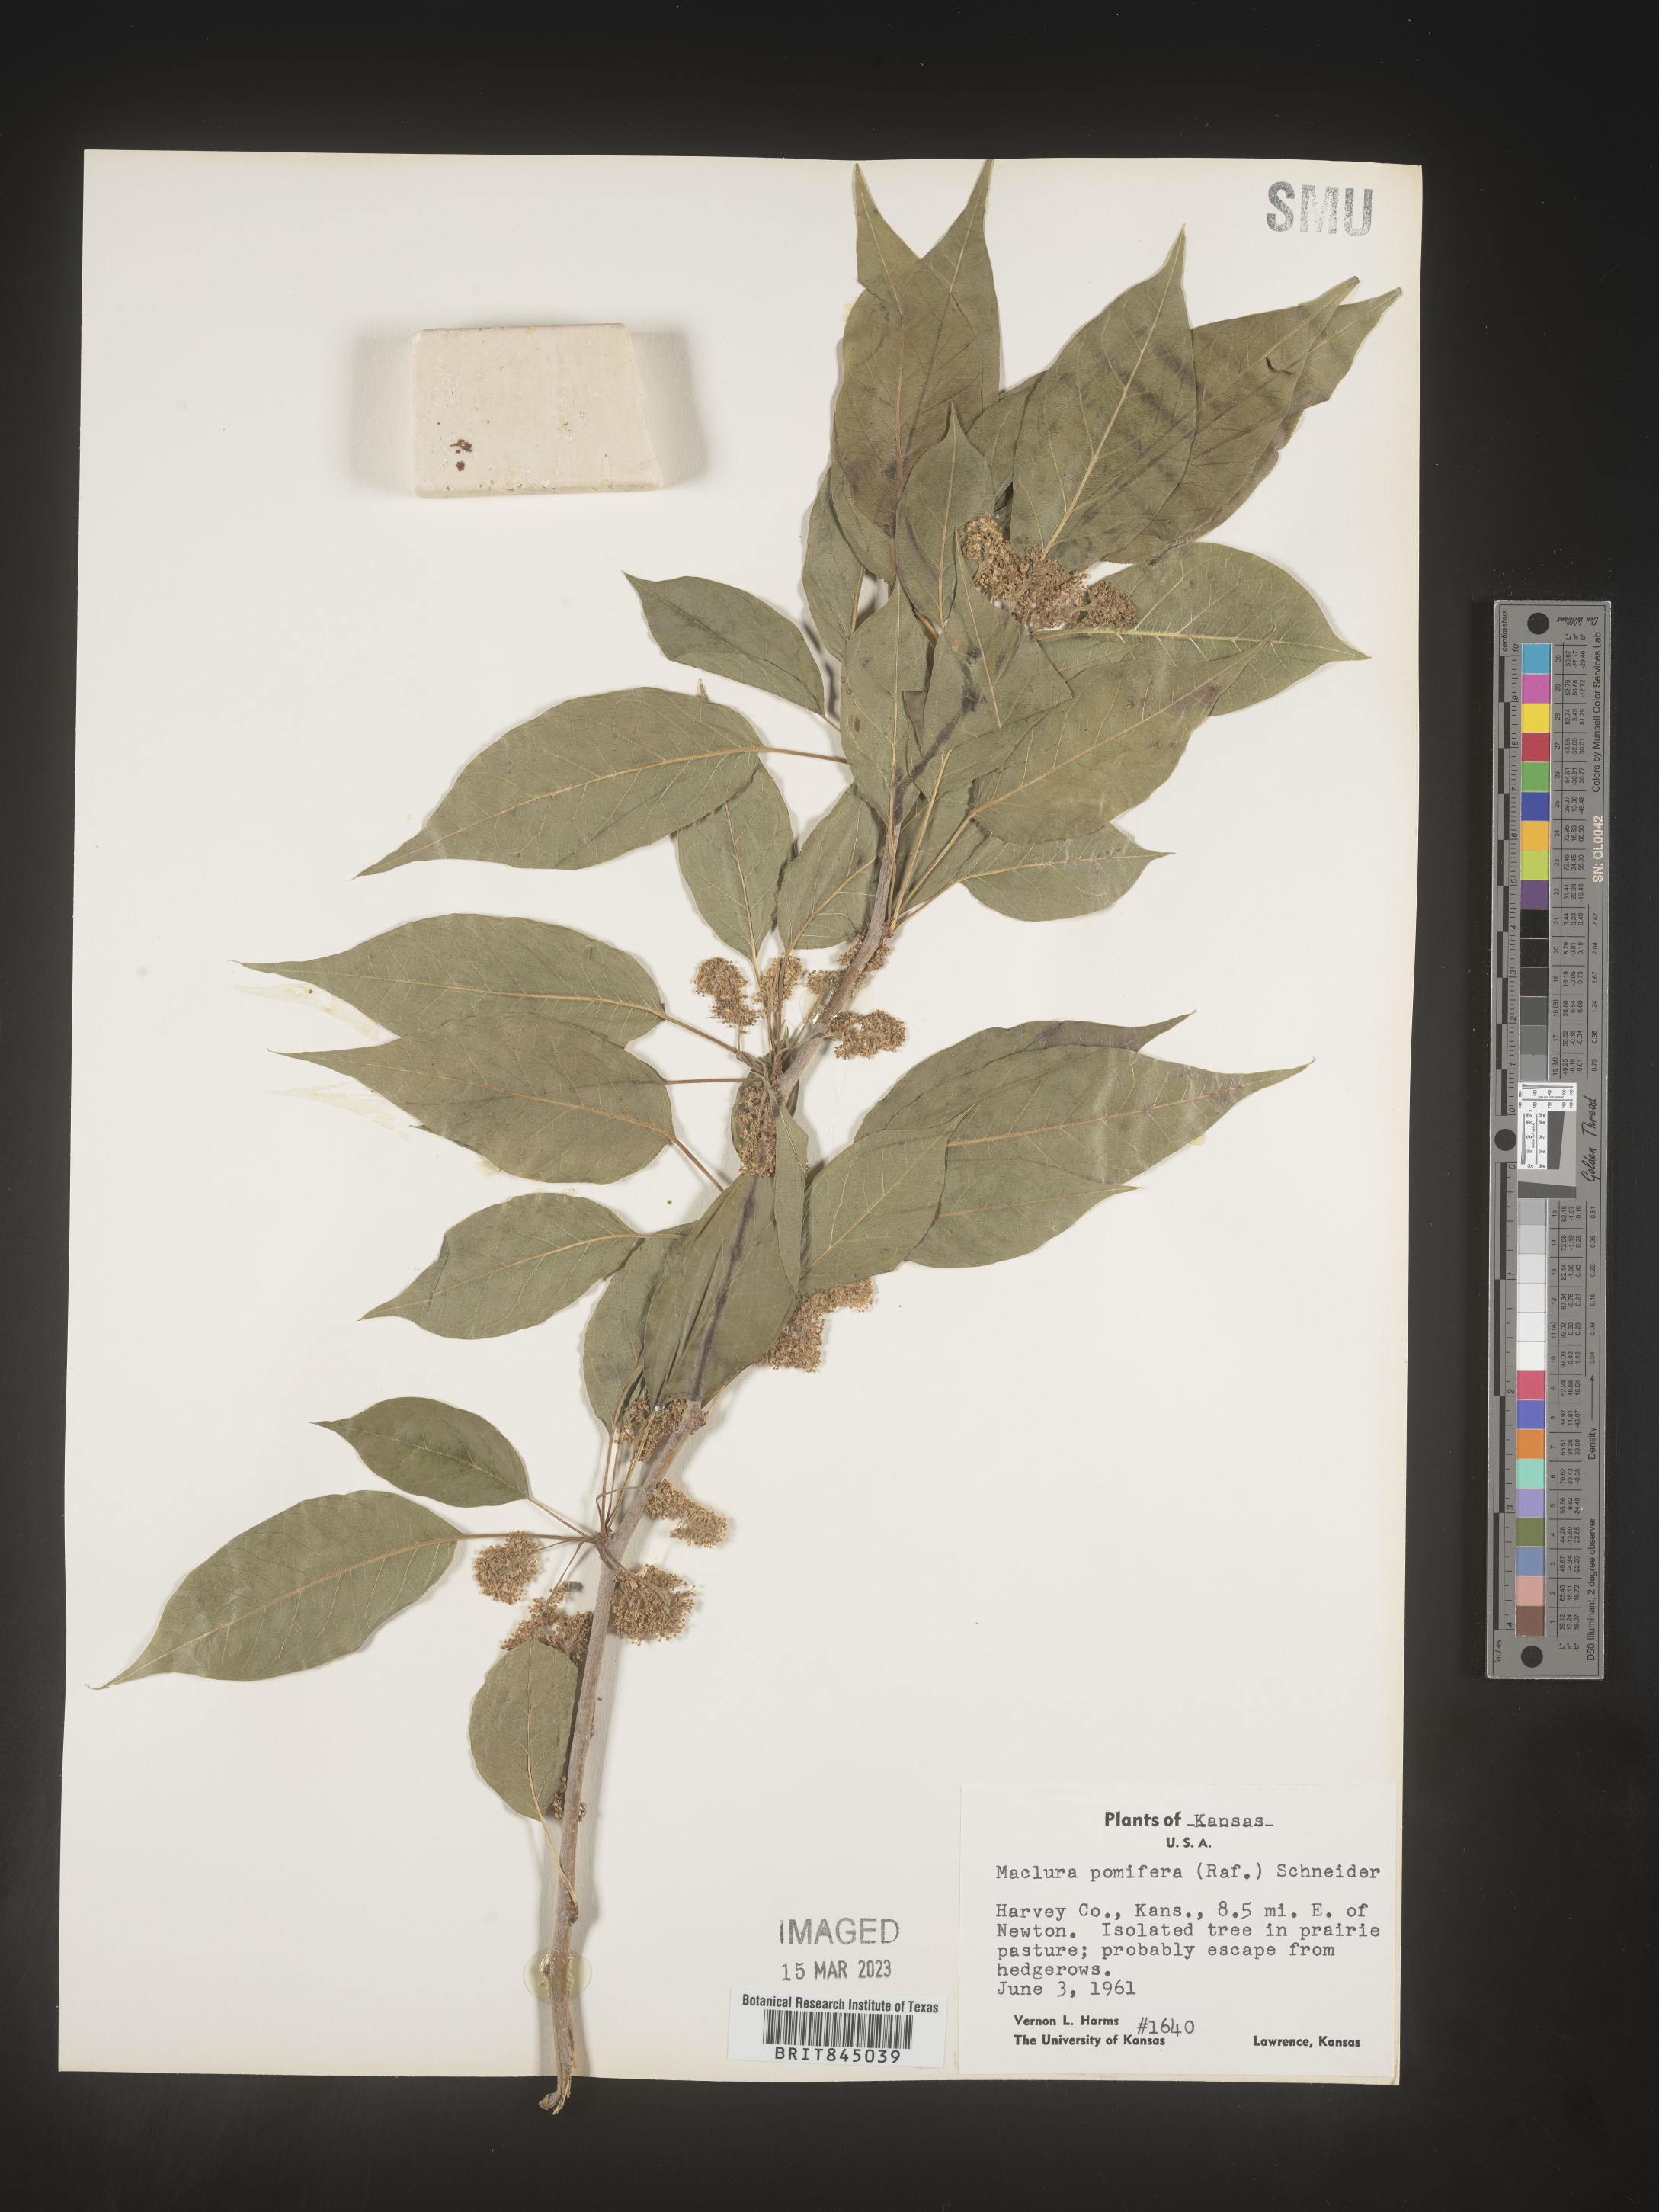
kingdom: Plantae
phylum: Tracheophyta
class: Magnoliopsida
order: Rosales
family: Moraceae
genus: Maclura
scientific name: Maclura pomifera
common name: Osage-orange
